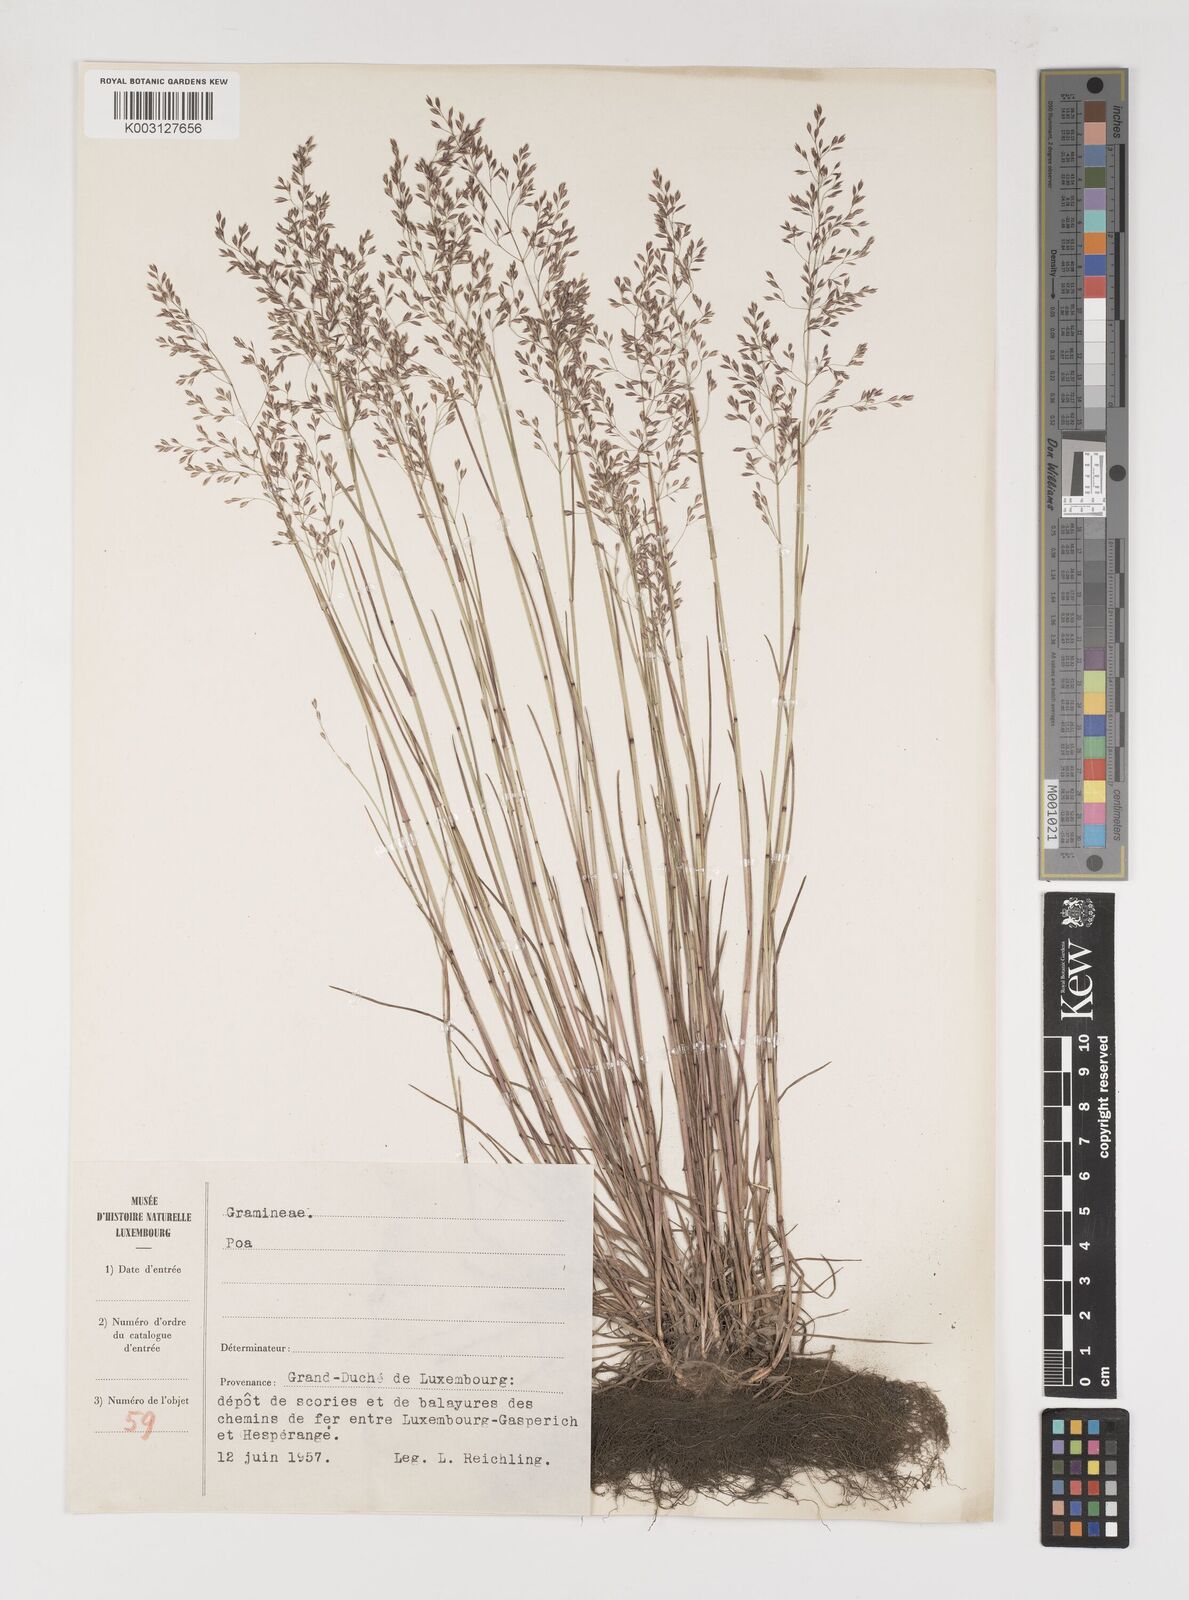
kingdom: Plantae
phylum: Tracheophyta
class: Liliopsida
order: Poales
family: Poaceae
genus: Poa
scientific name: Poa
